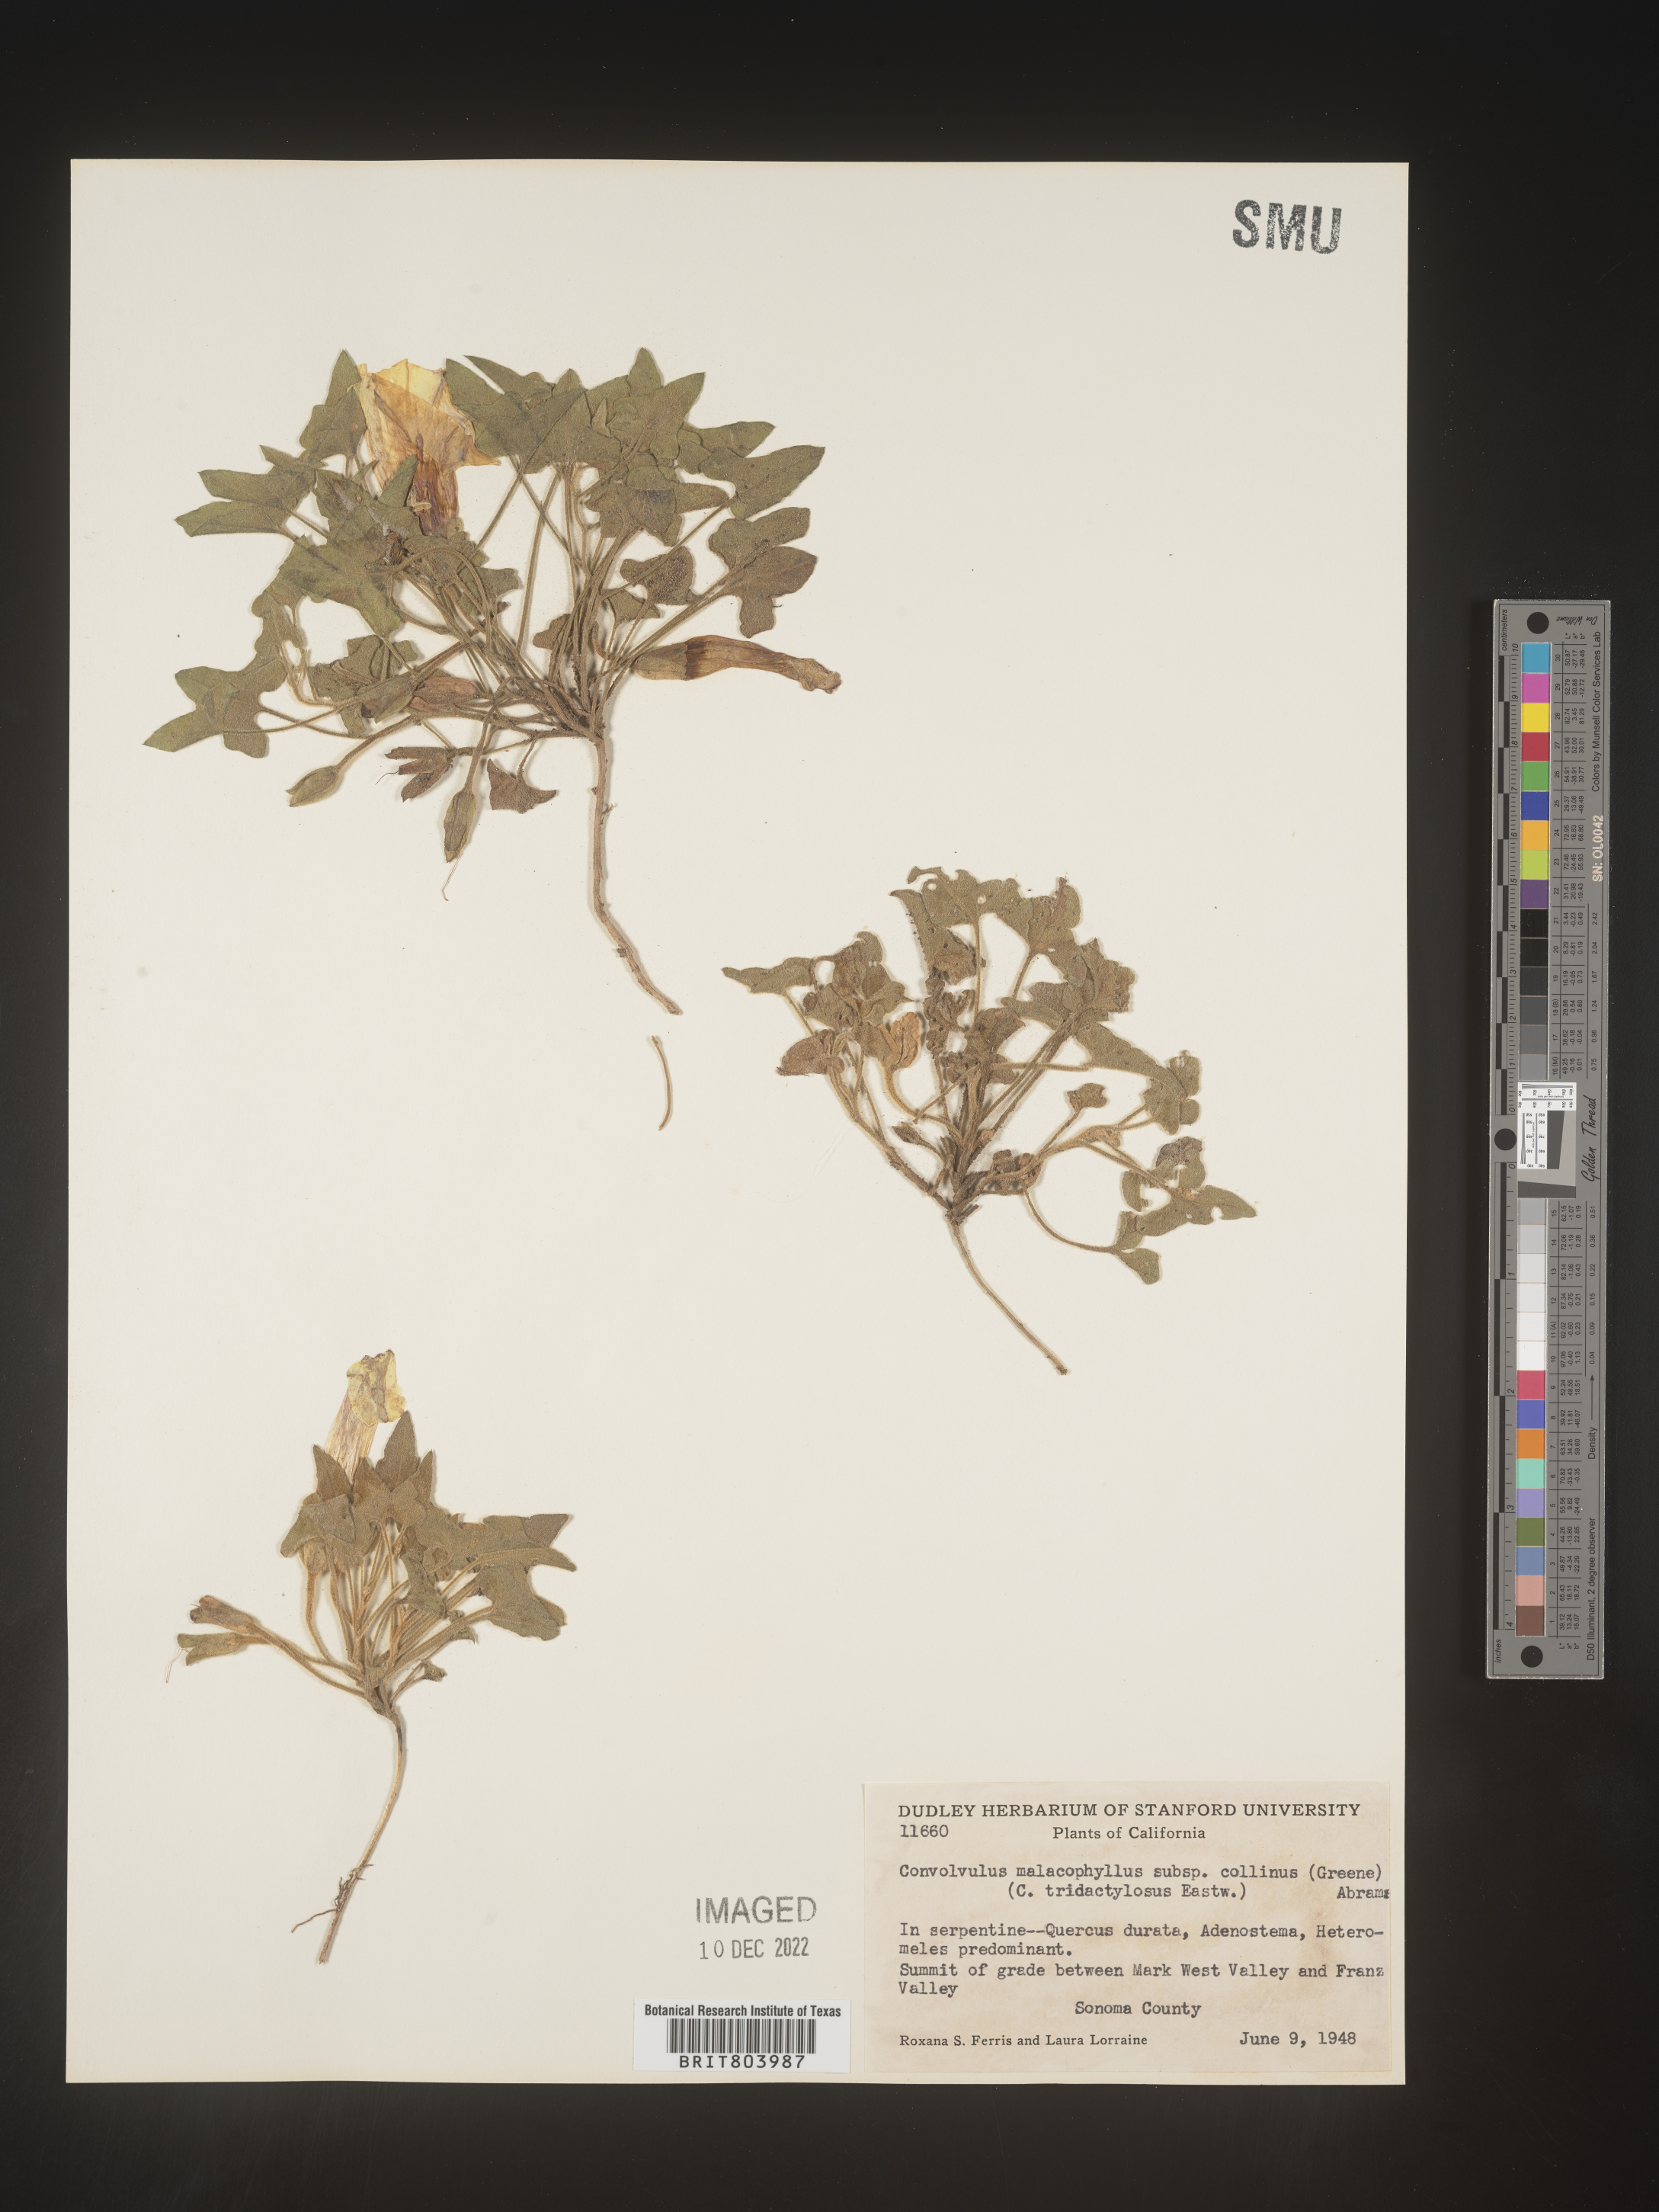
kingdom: Plantae
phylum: Tracheophyta
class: Magnoliopsida
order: Solanales
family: Convolvulaceae
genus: Calystegia
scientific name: Calystegia
